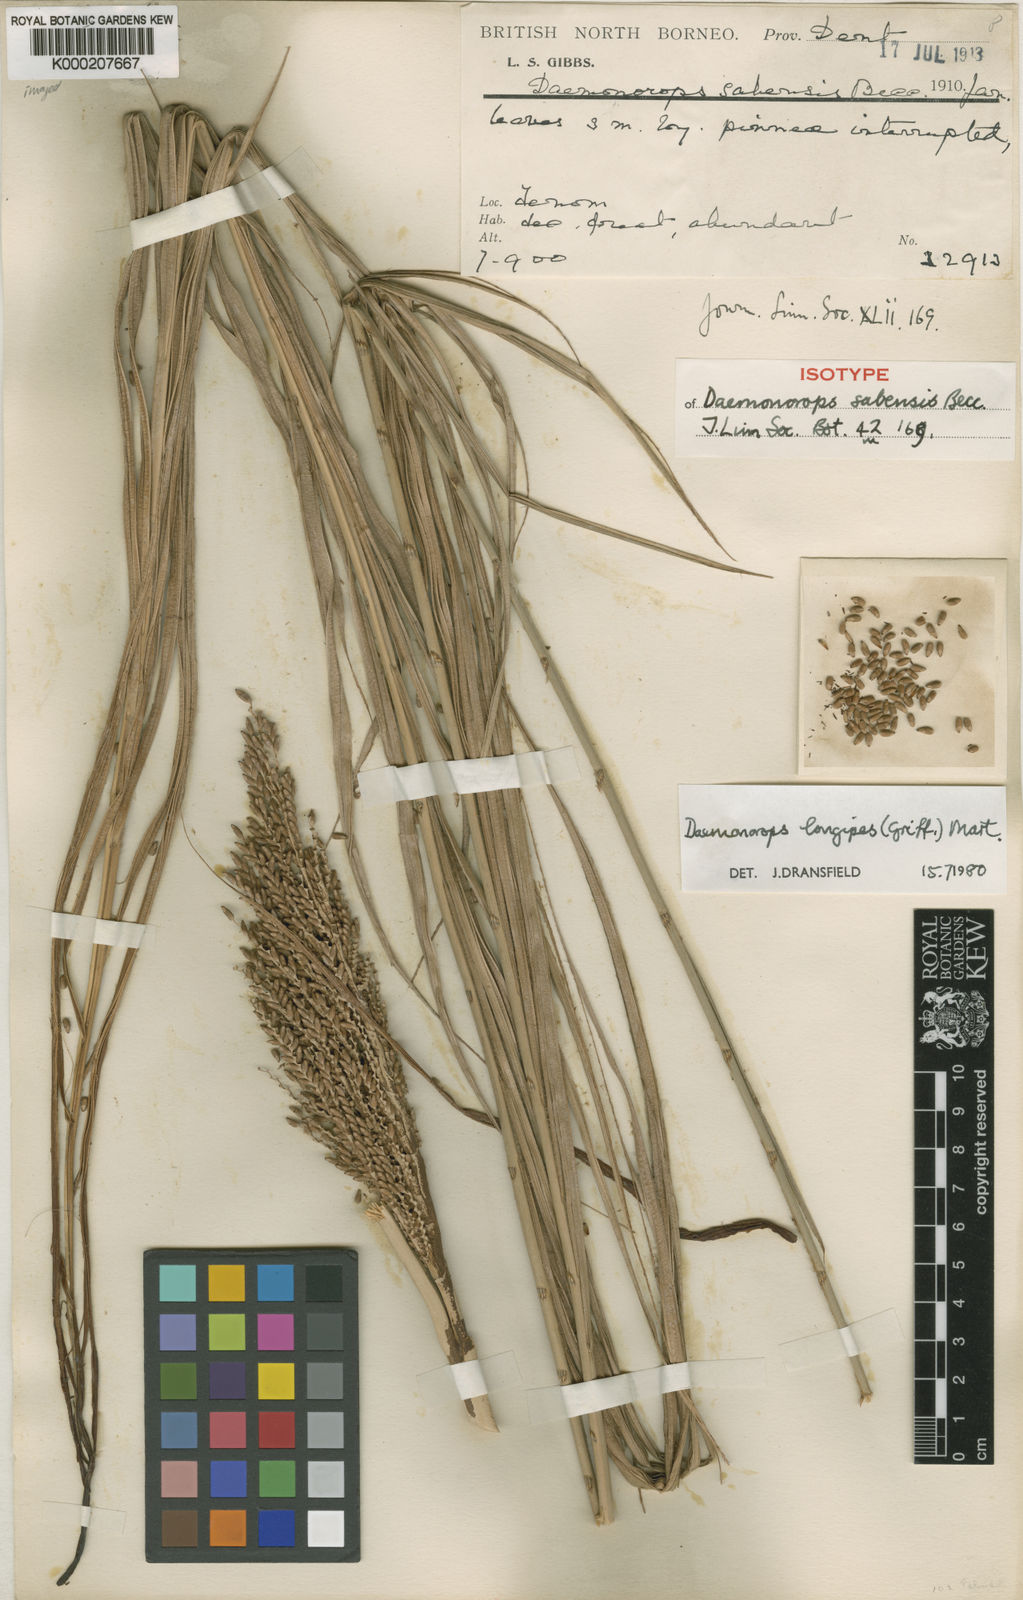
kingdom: Plantae
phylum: Tracheophyta
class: Liliopsida
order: Arecales
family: Arecaceae
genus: Calamus
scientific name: Calamus longipes
